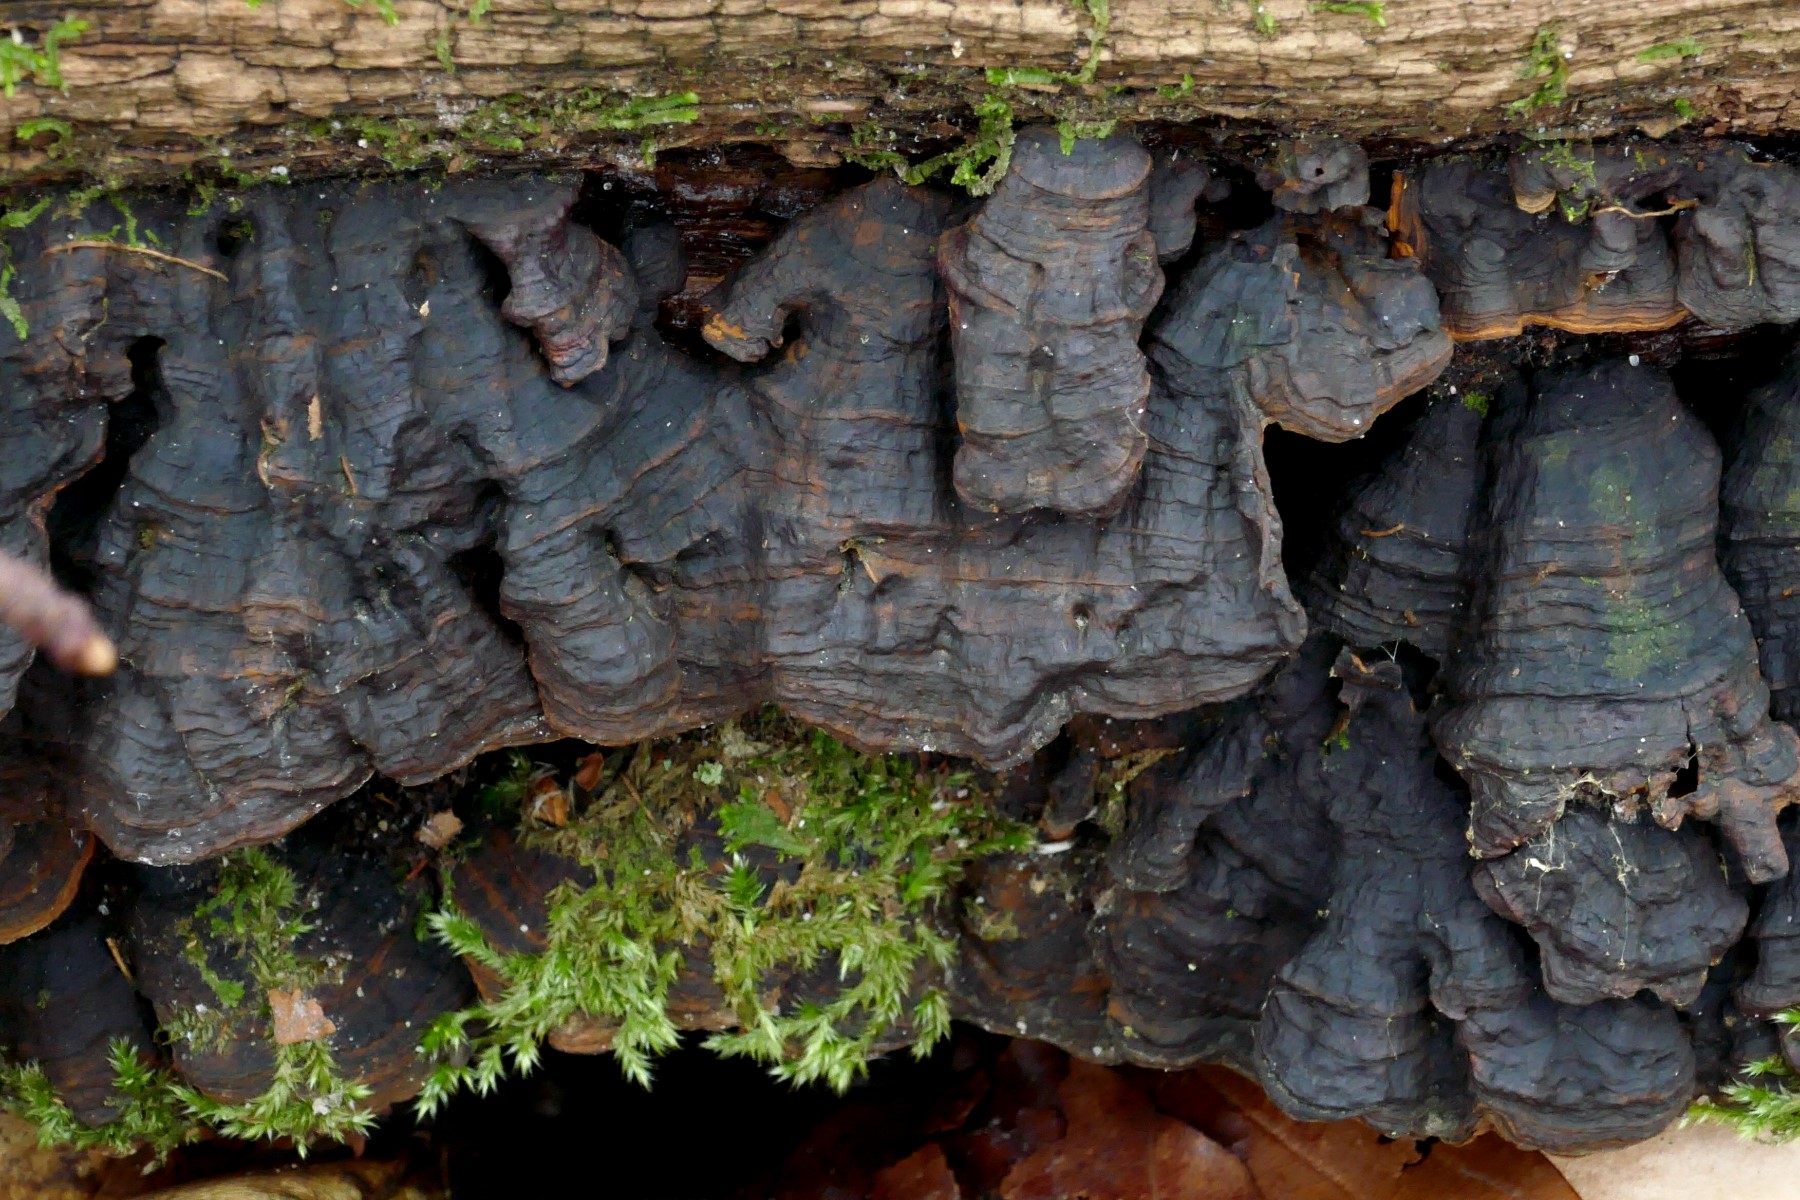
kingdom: Fungi
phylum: Basidiomycota
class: Agaricomycetes
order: Hymenochaetales
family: Hymenochaetaceae
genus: Hymenochaete
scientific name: Hymenochaete rubiginosa
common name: stiv ruslædersvamp
